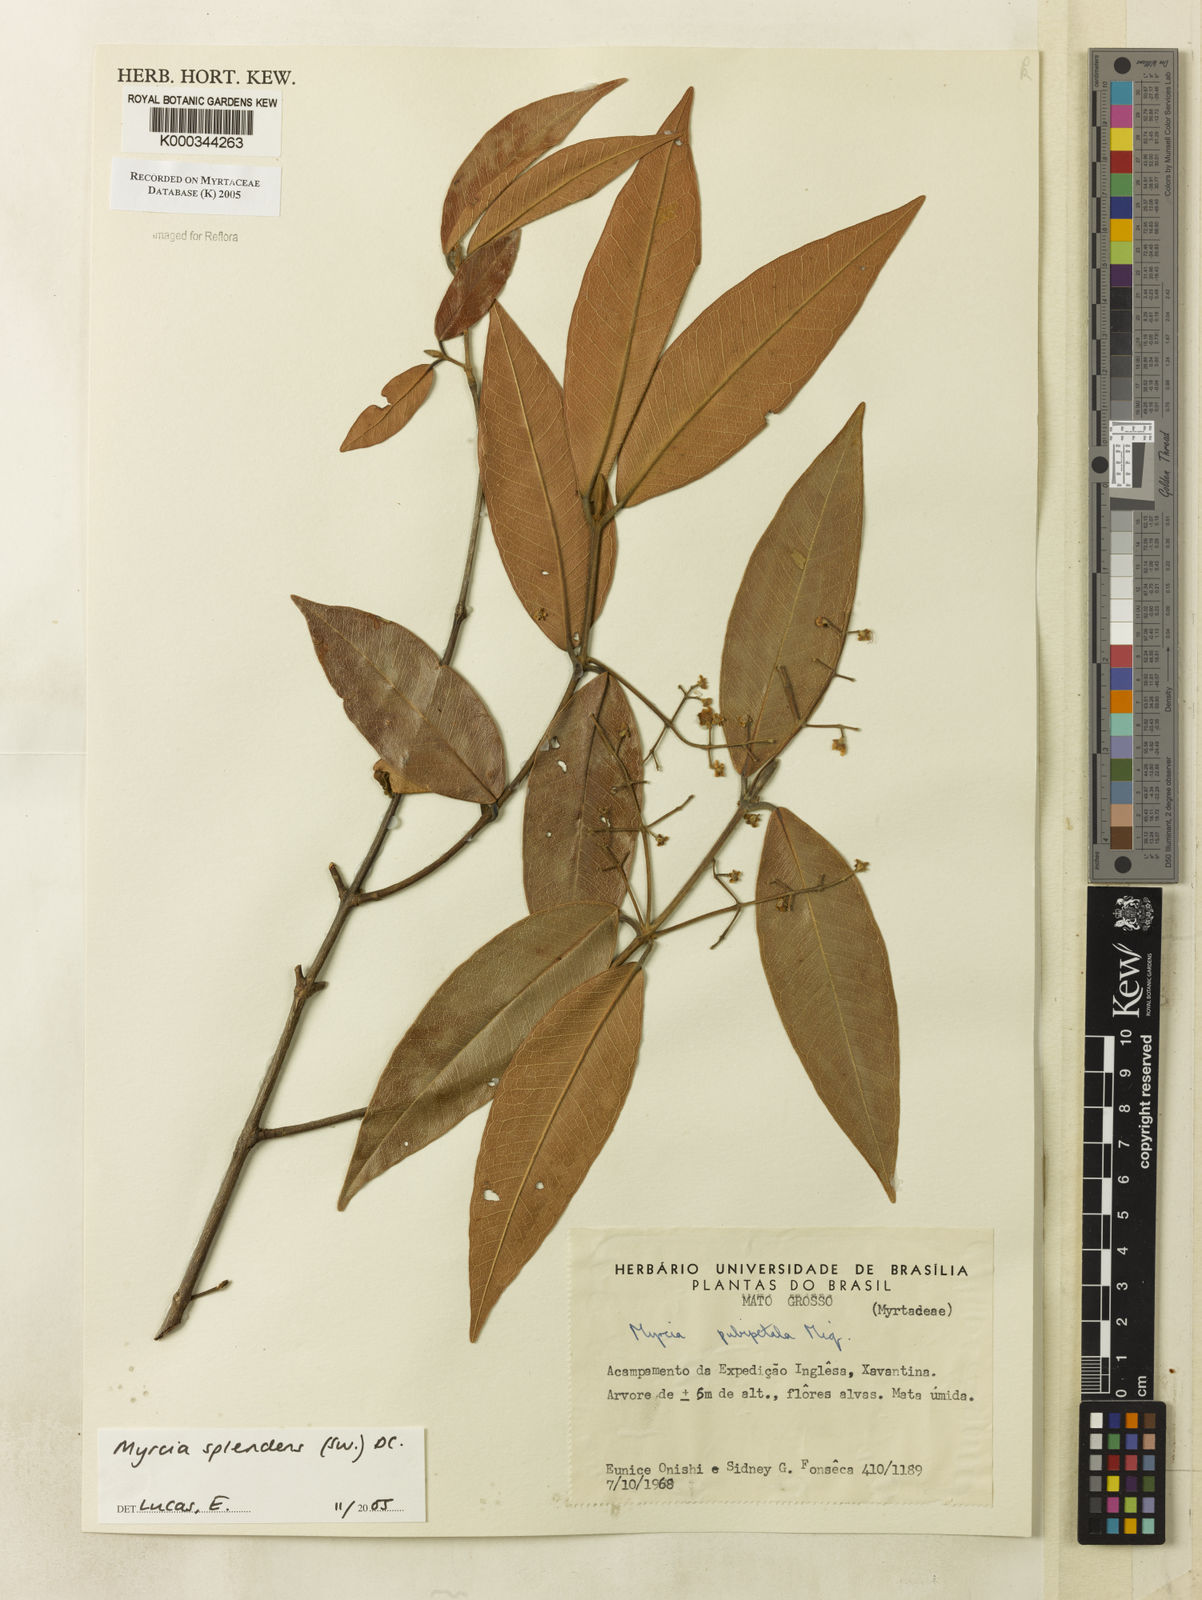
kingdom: Plantae
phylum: Tracheophyta
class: Magnoliopsida
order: Myrtales
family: Myrtaceae
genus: Myrcia
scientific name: Myrcia splendens
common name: Surinam cherry
